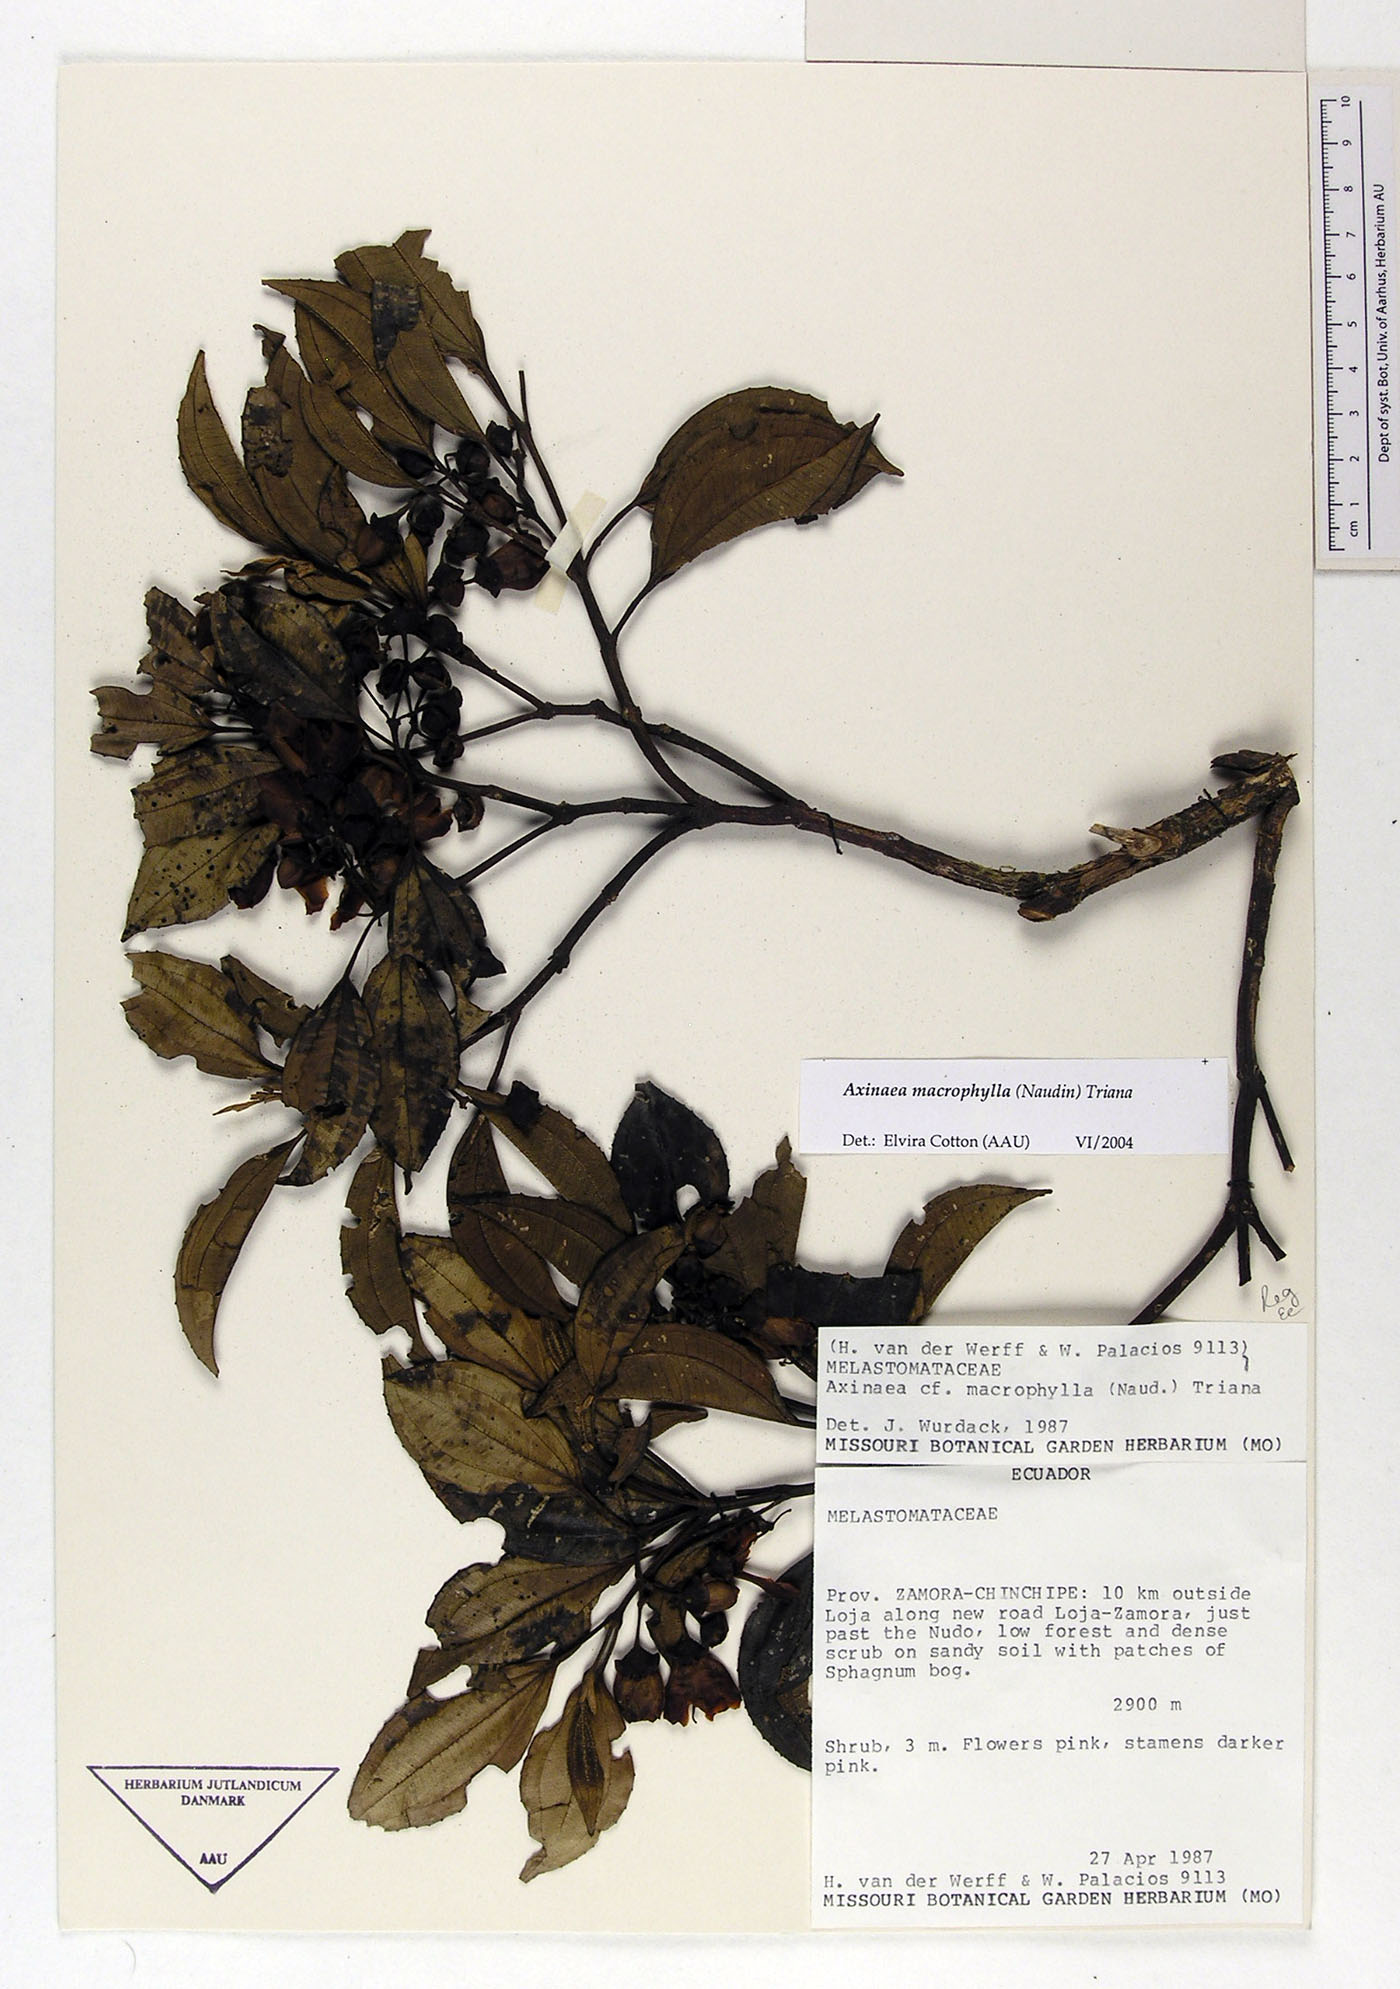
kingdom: Plantae
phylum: Tracheophyta
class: Magnoliopsida
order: Myrtales
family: Melastomataceae
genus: Axinaea
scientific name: Axinaea macrophylla
